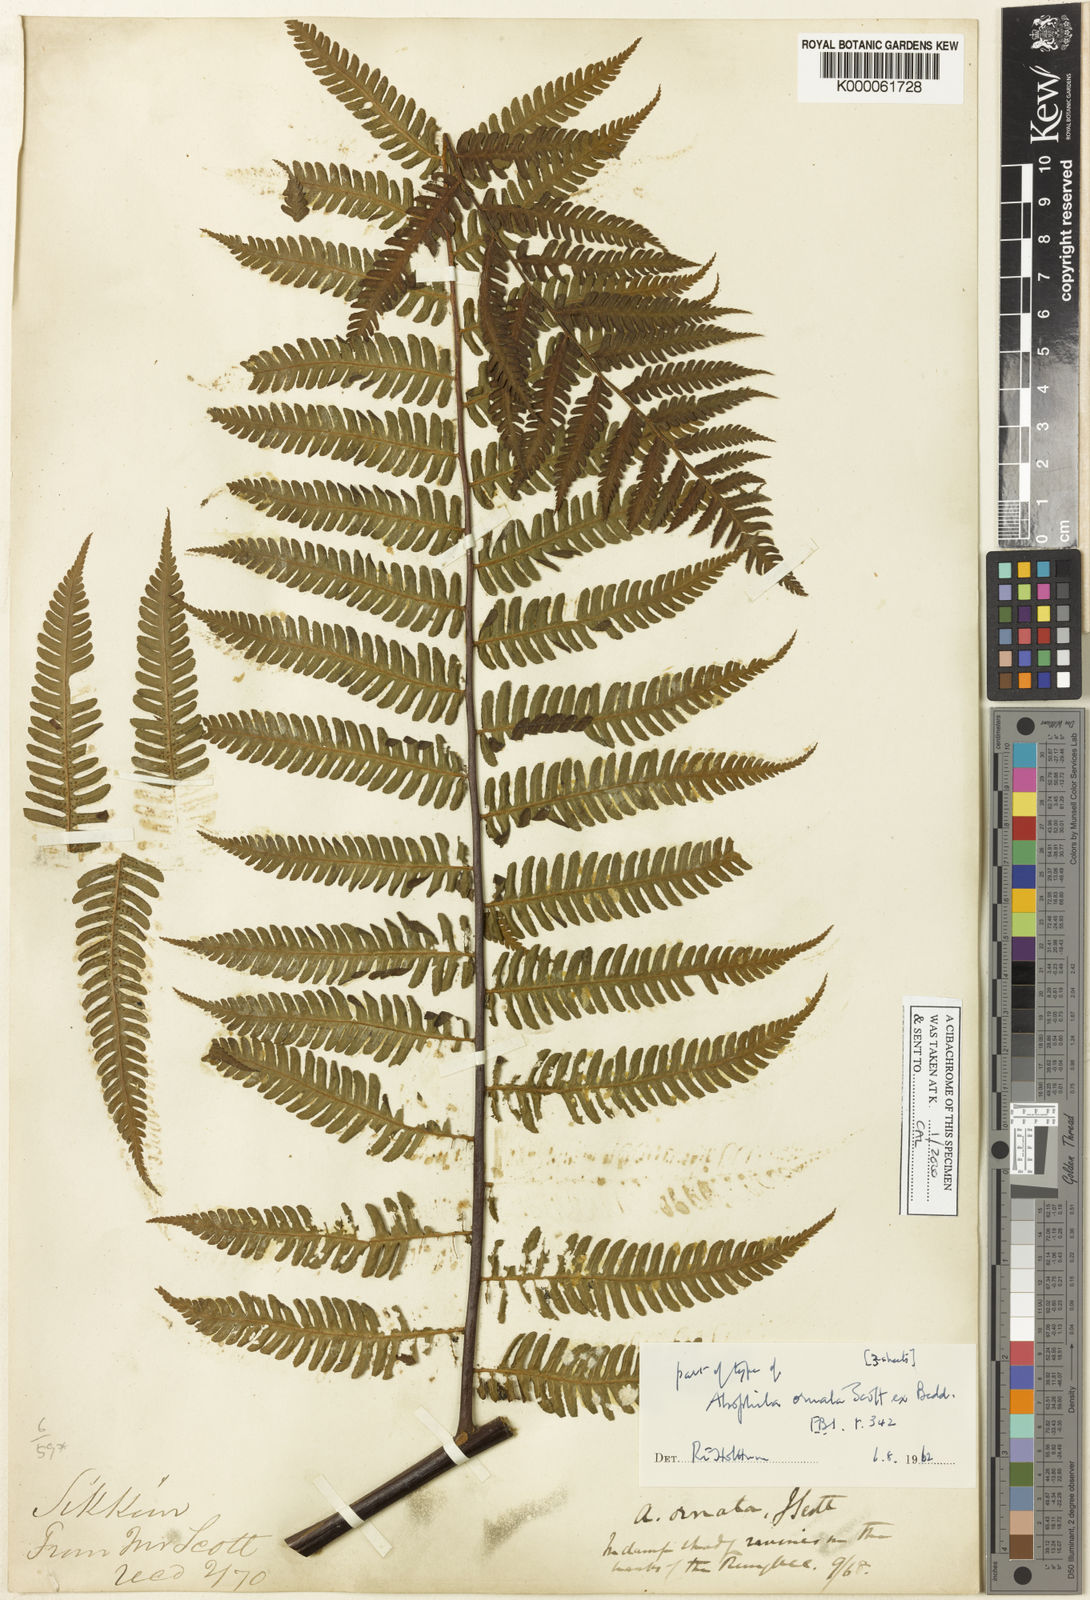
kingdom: Plantae
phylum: Tracheophyta
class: Polypodiopsida
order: Cyatheales
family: Cyatheaceae
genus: Gymnosphaera
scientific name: Gymnosphaera khasyana
